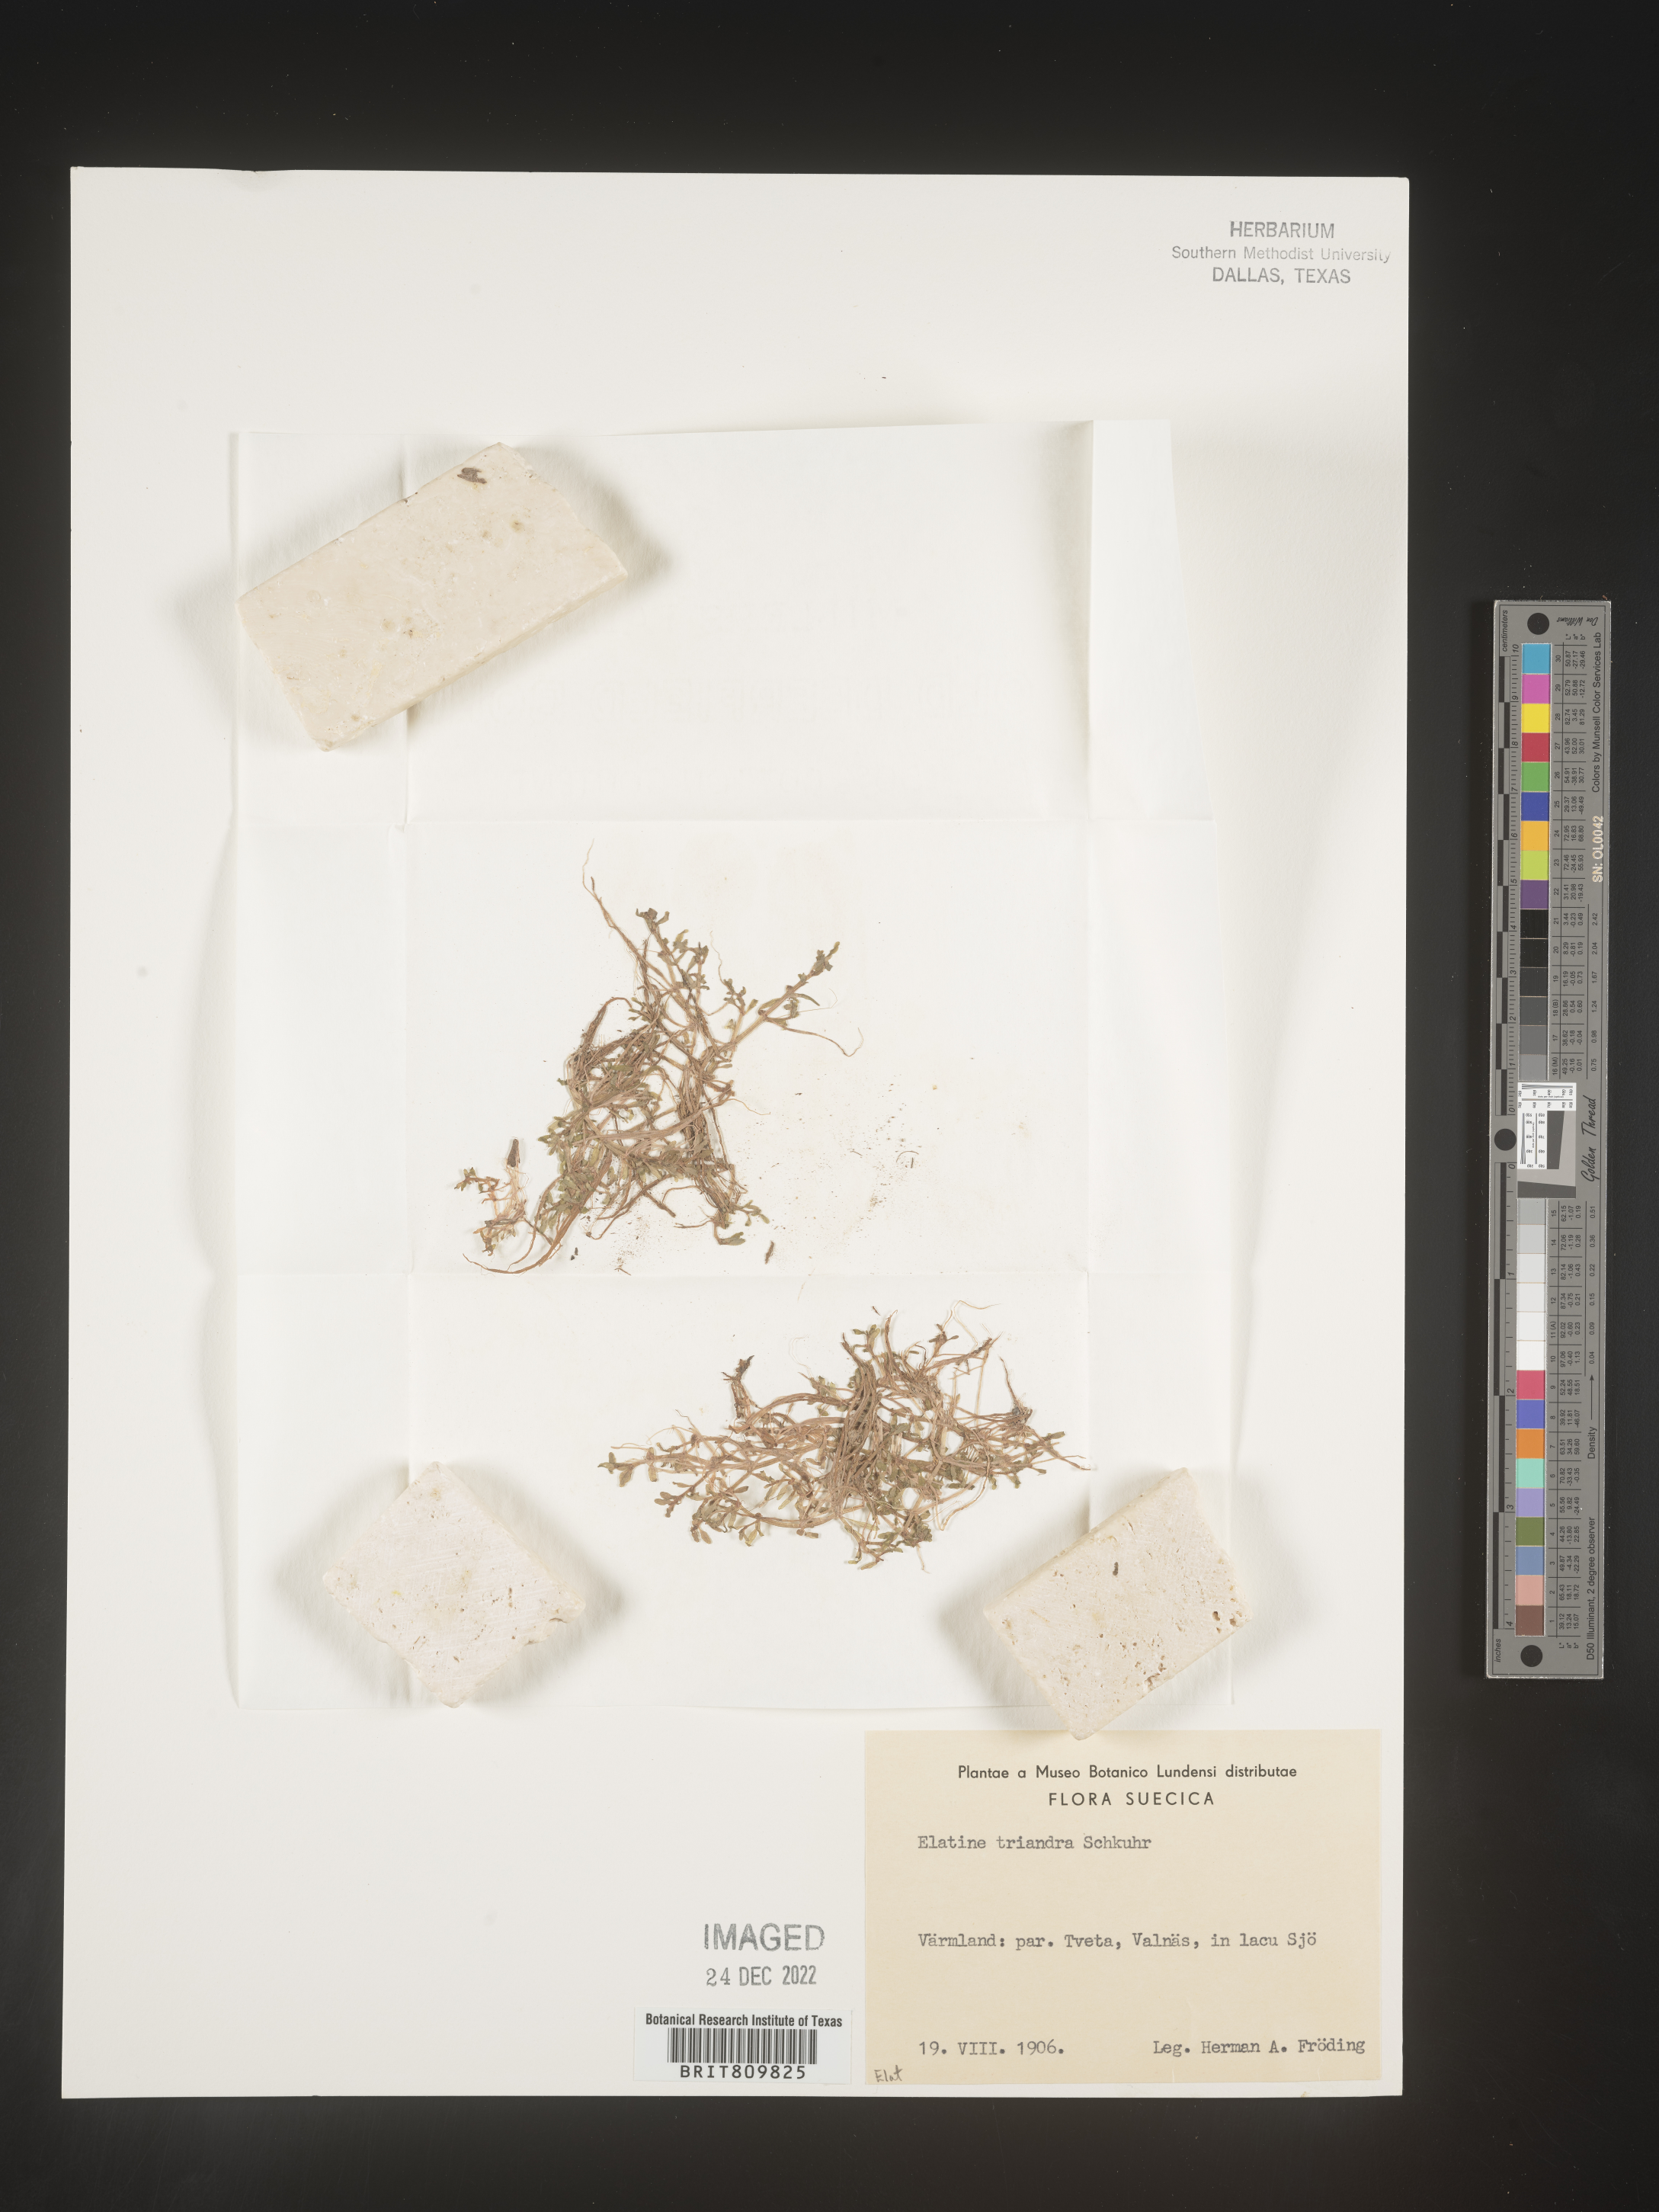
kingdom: Plantae
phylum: Tracheophyta
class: Magnoliopsida
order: Malpighiales
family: Elatinaceae
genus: Elatine
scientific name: Elatine
